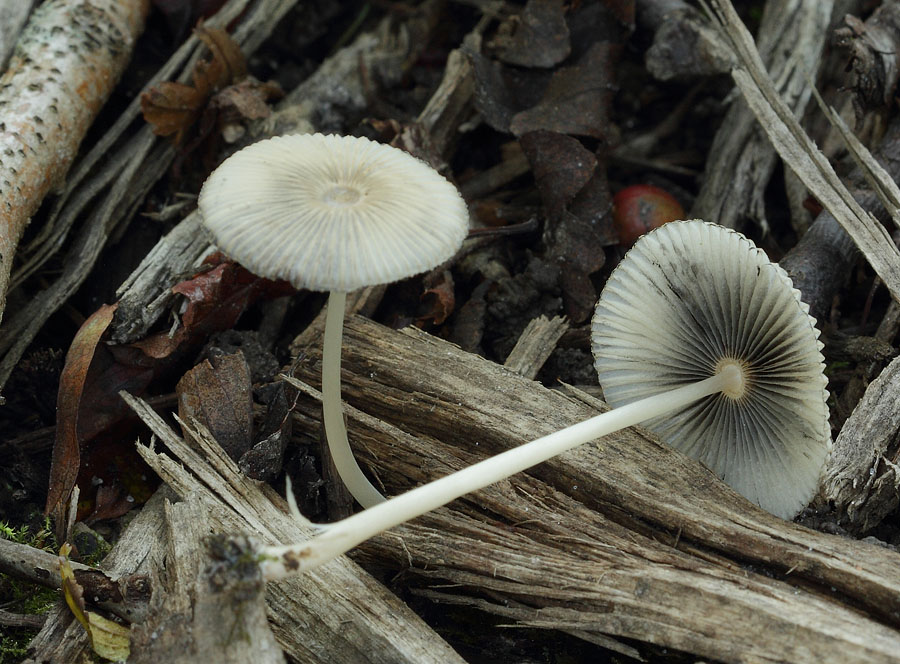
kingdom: Fungi
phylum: Basidiomycota
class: Agaricomycetes
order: Agaricales
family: Psathyrellaceae
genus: Parasola
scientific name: Parasola lactea
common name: glat hjulhat
